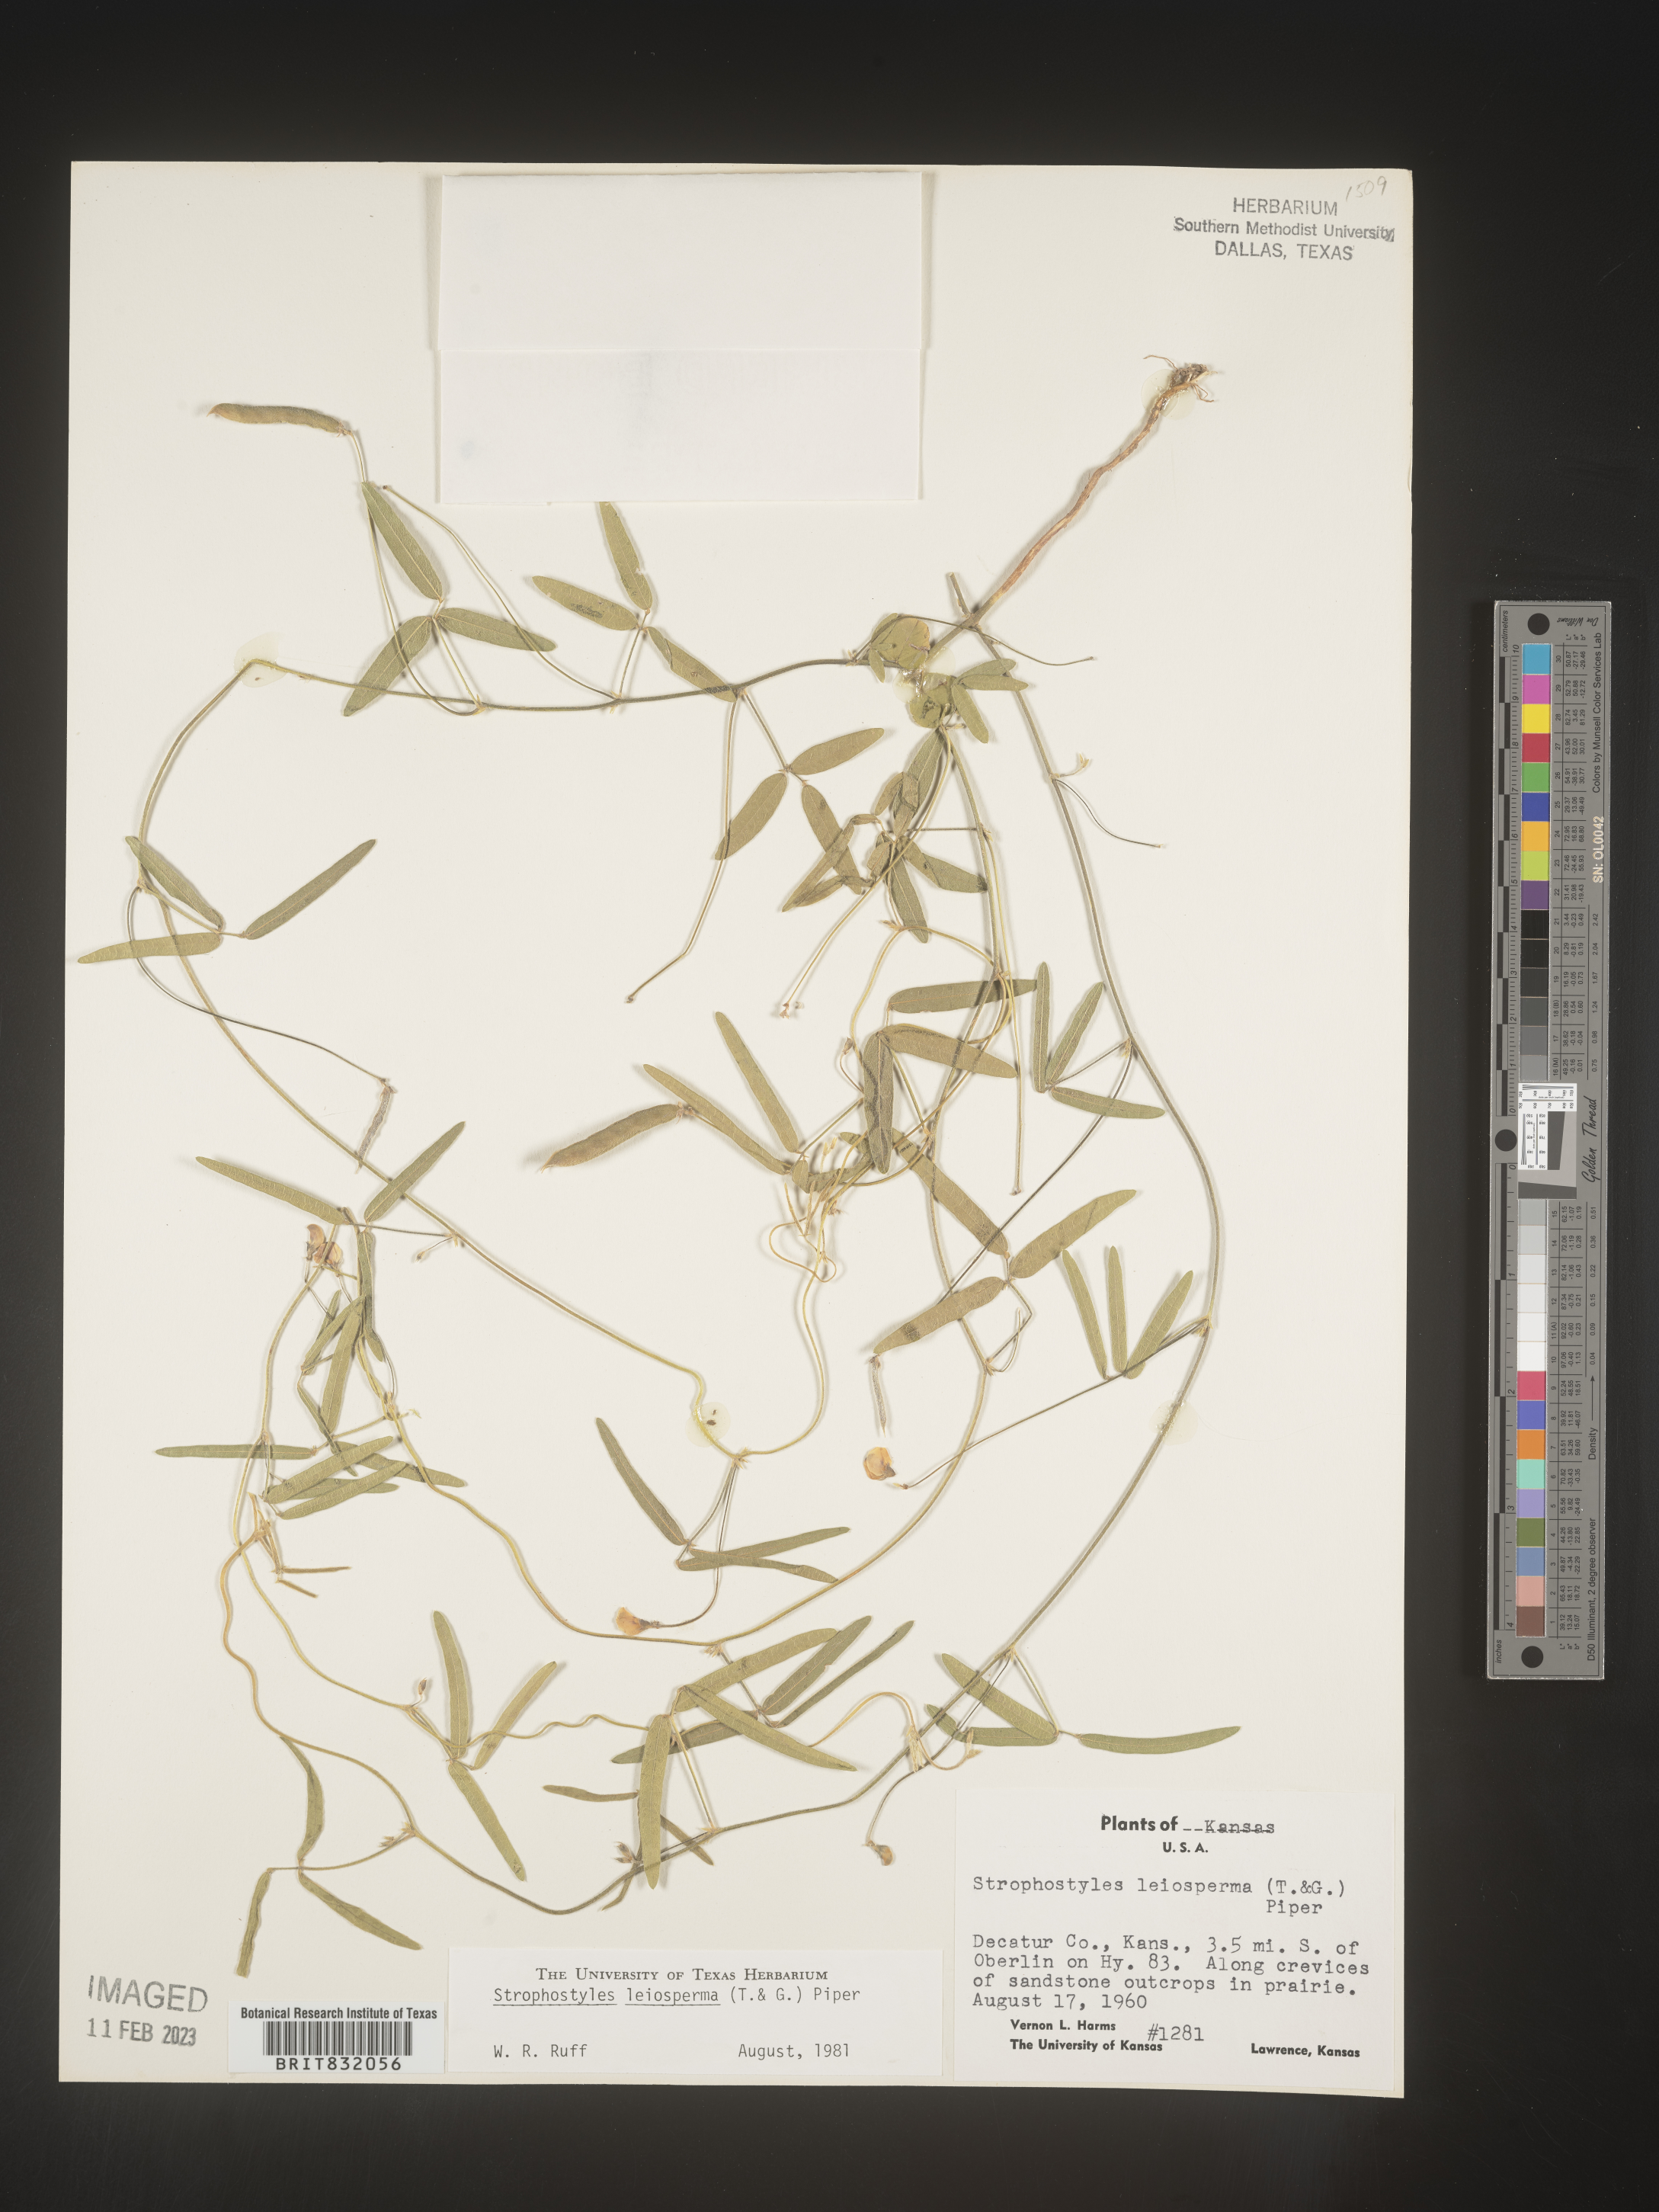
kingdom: Plantae
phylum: Tracheophyta
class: Magnoliopsida
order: Fabales
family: Fabaceae
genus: Strophostyles
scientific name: Strophostyles leiosperma
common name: Smooth-seed wild bean
